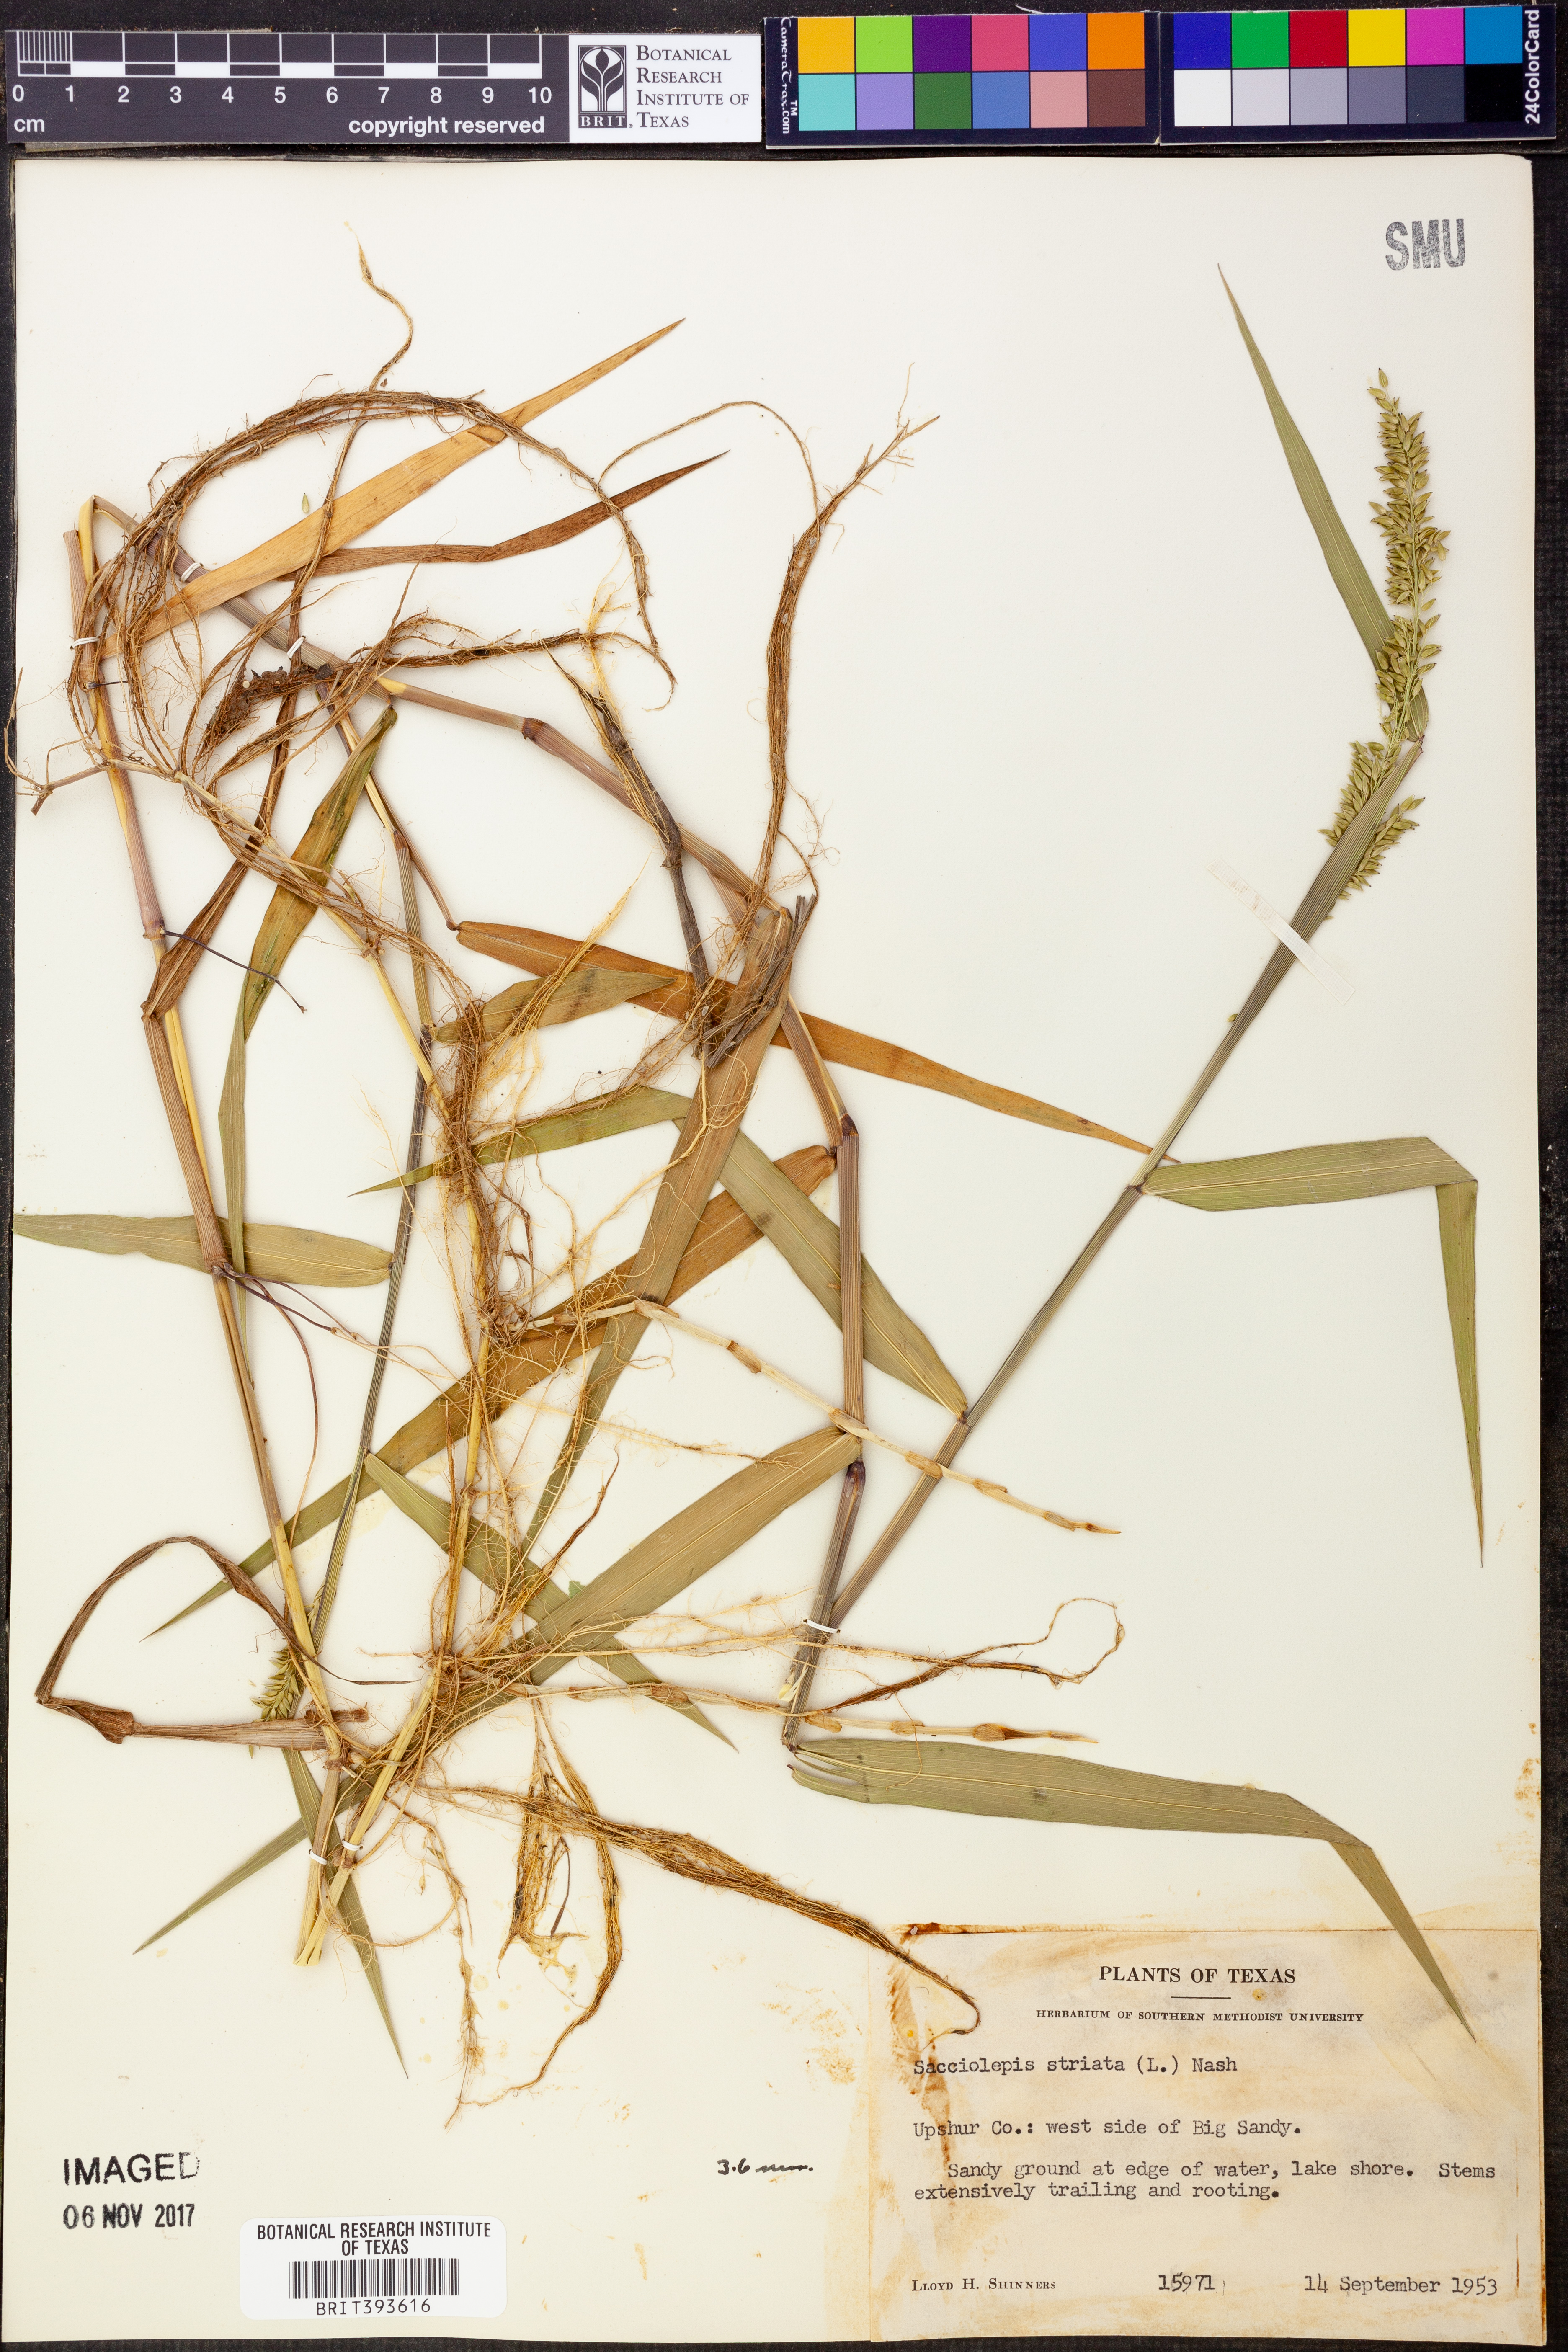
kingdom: Plantae
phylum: Tracheophyta
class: Liliopsida
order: Poales
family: Poaceae
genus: Sacciolepis
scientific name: Sacciolepis striata
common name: American cupscale
